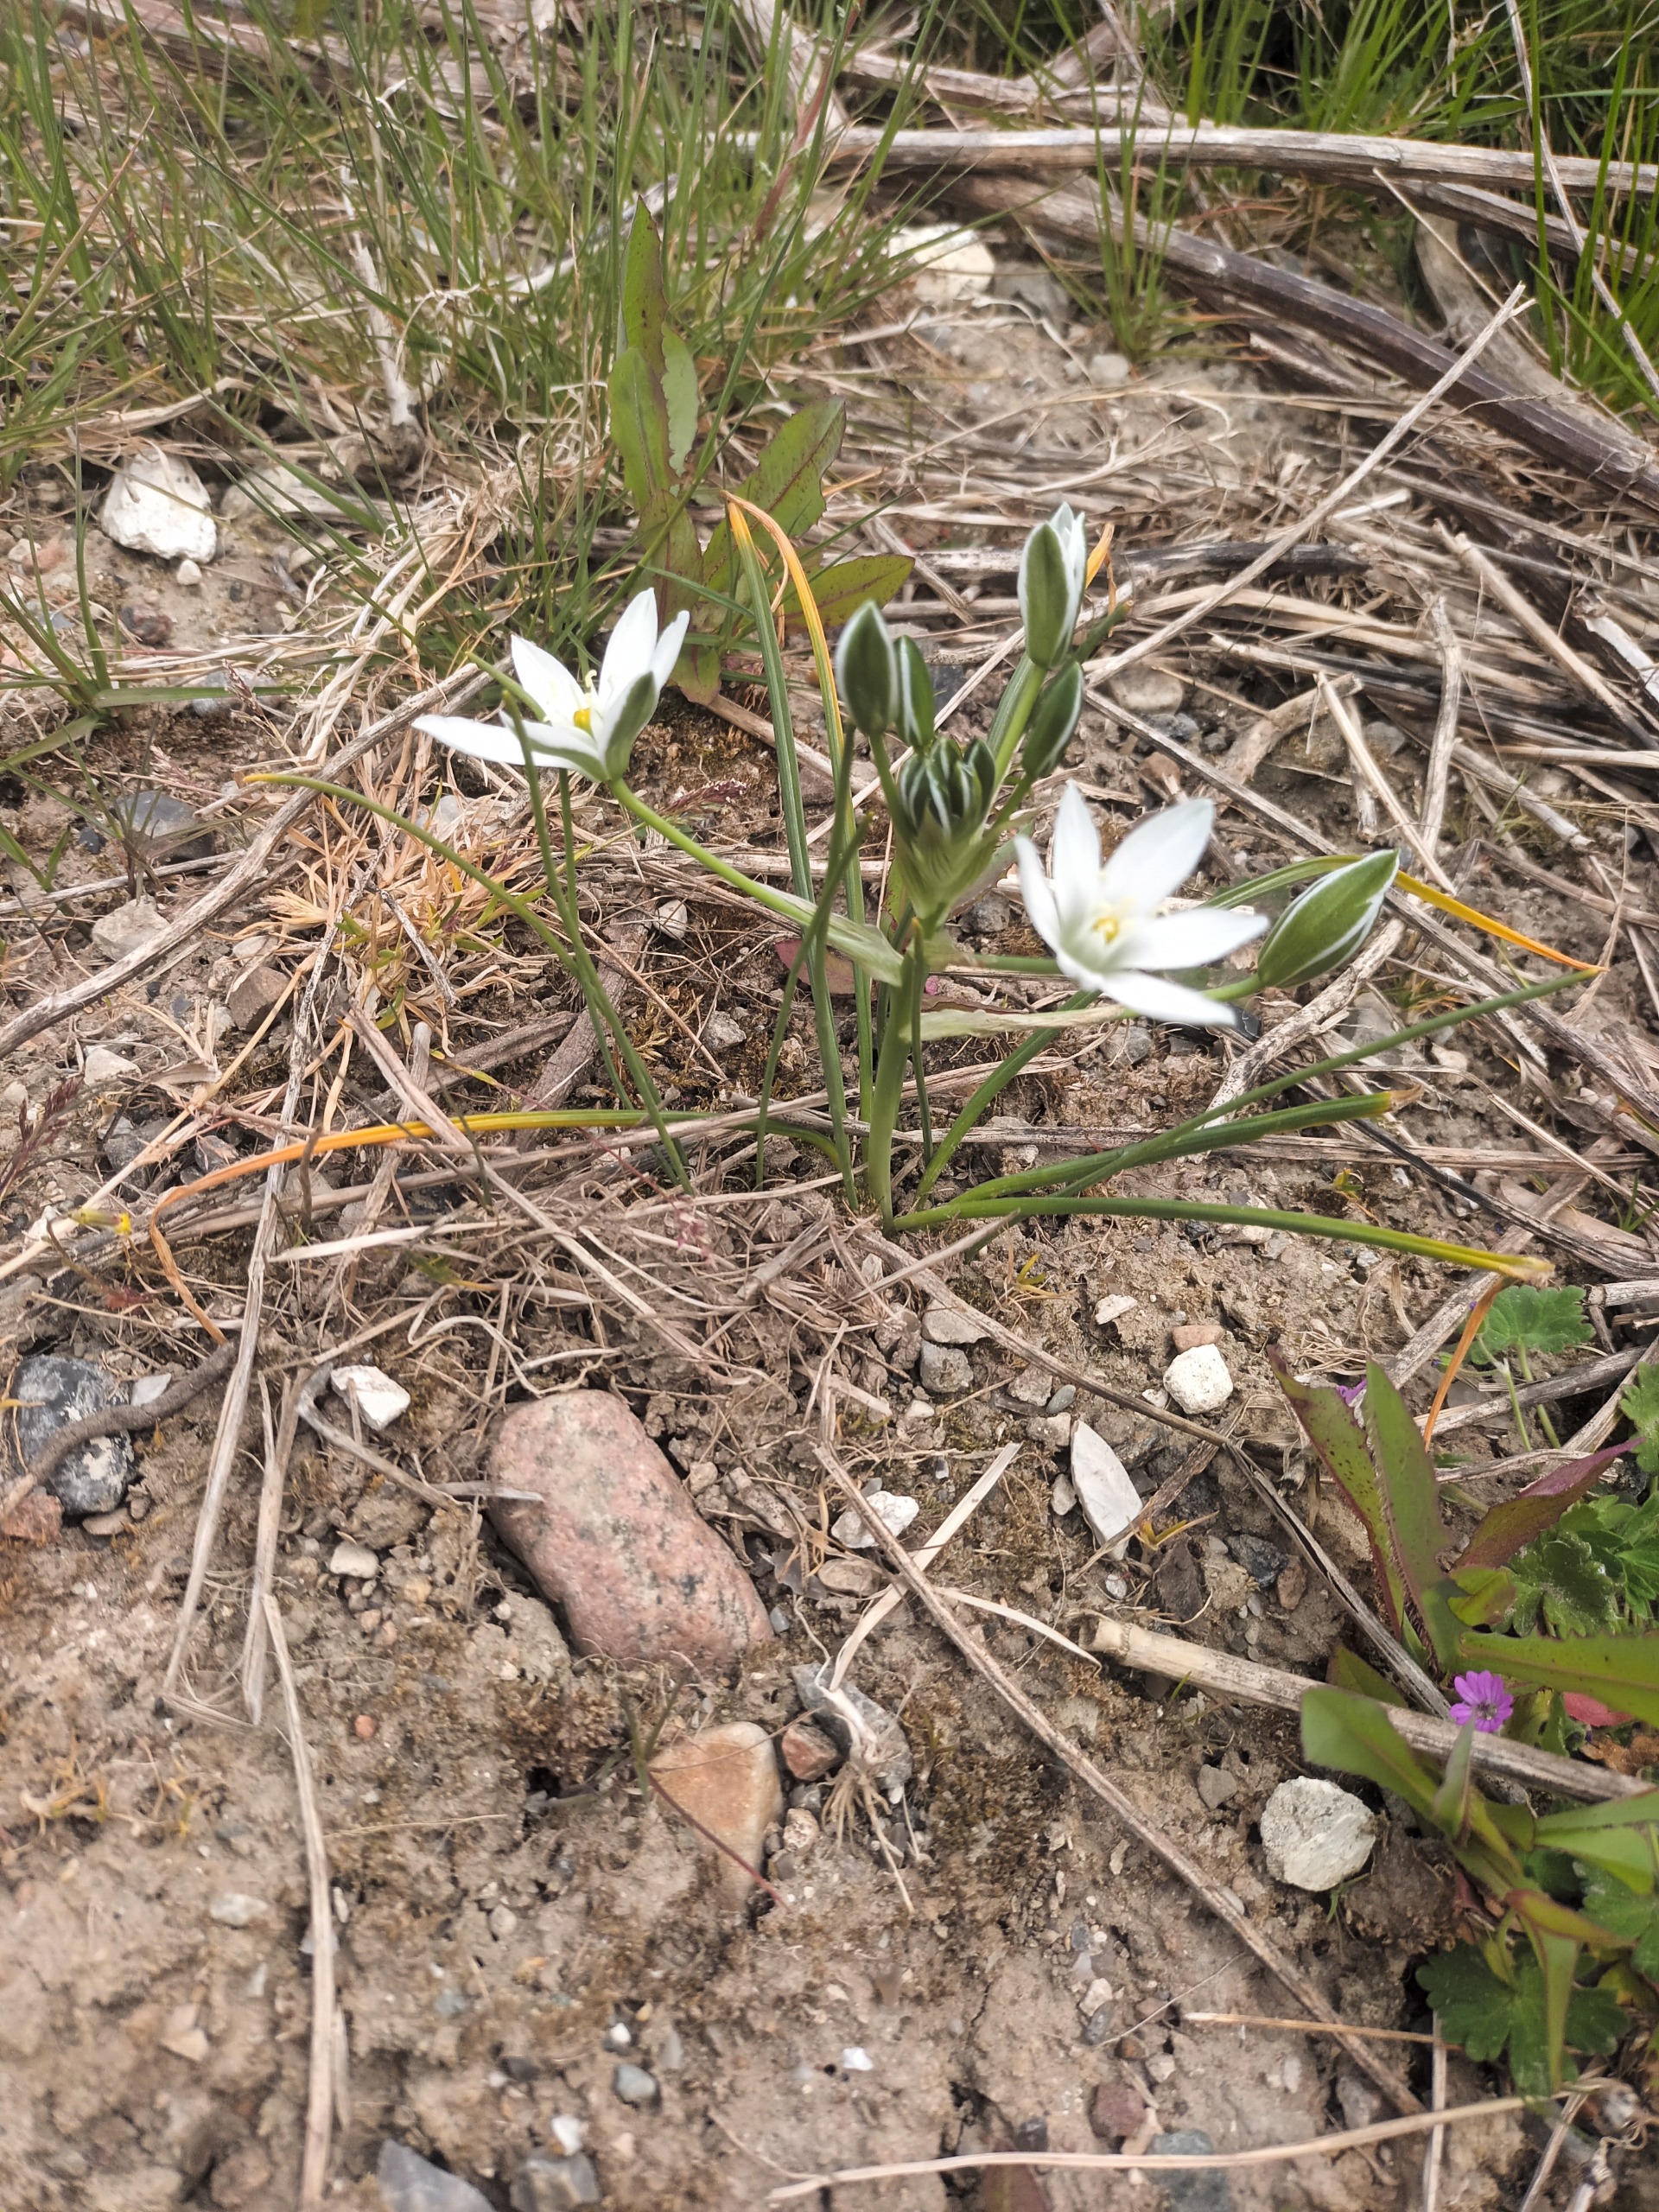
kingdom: Plantae
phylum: Tracheophyta
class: Liliopsida
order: Asparagales
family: Asparagaceae
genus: Ornithogalum
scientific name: Ornithogalum divergens
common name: Udspærret fuglemælk
